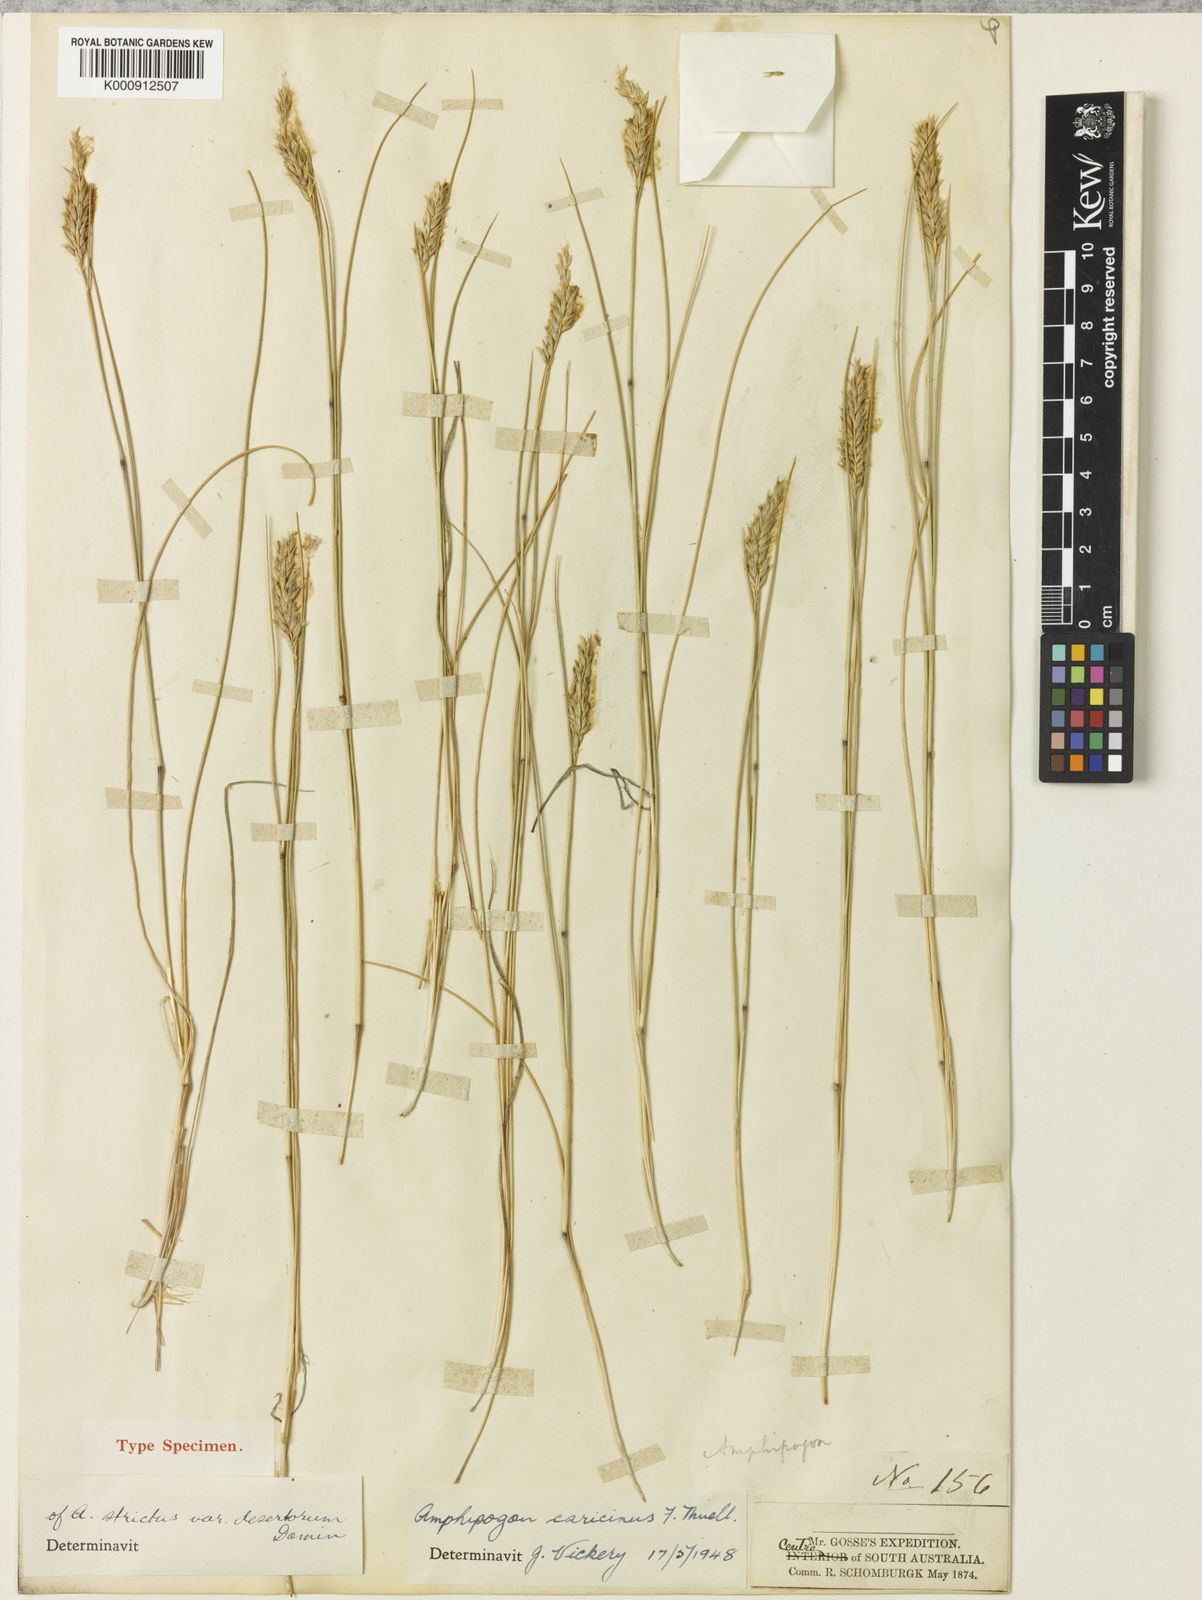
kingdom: Plantae
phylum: Tracheophyta
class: Liliopsida
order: Poales
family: Poaceae
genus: Amphipogon
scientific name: Amphipogon caricinus
